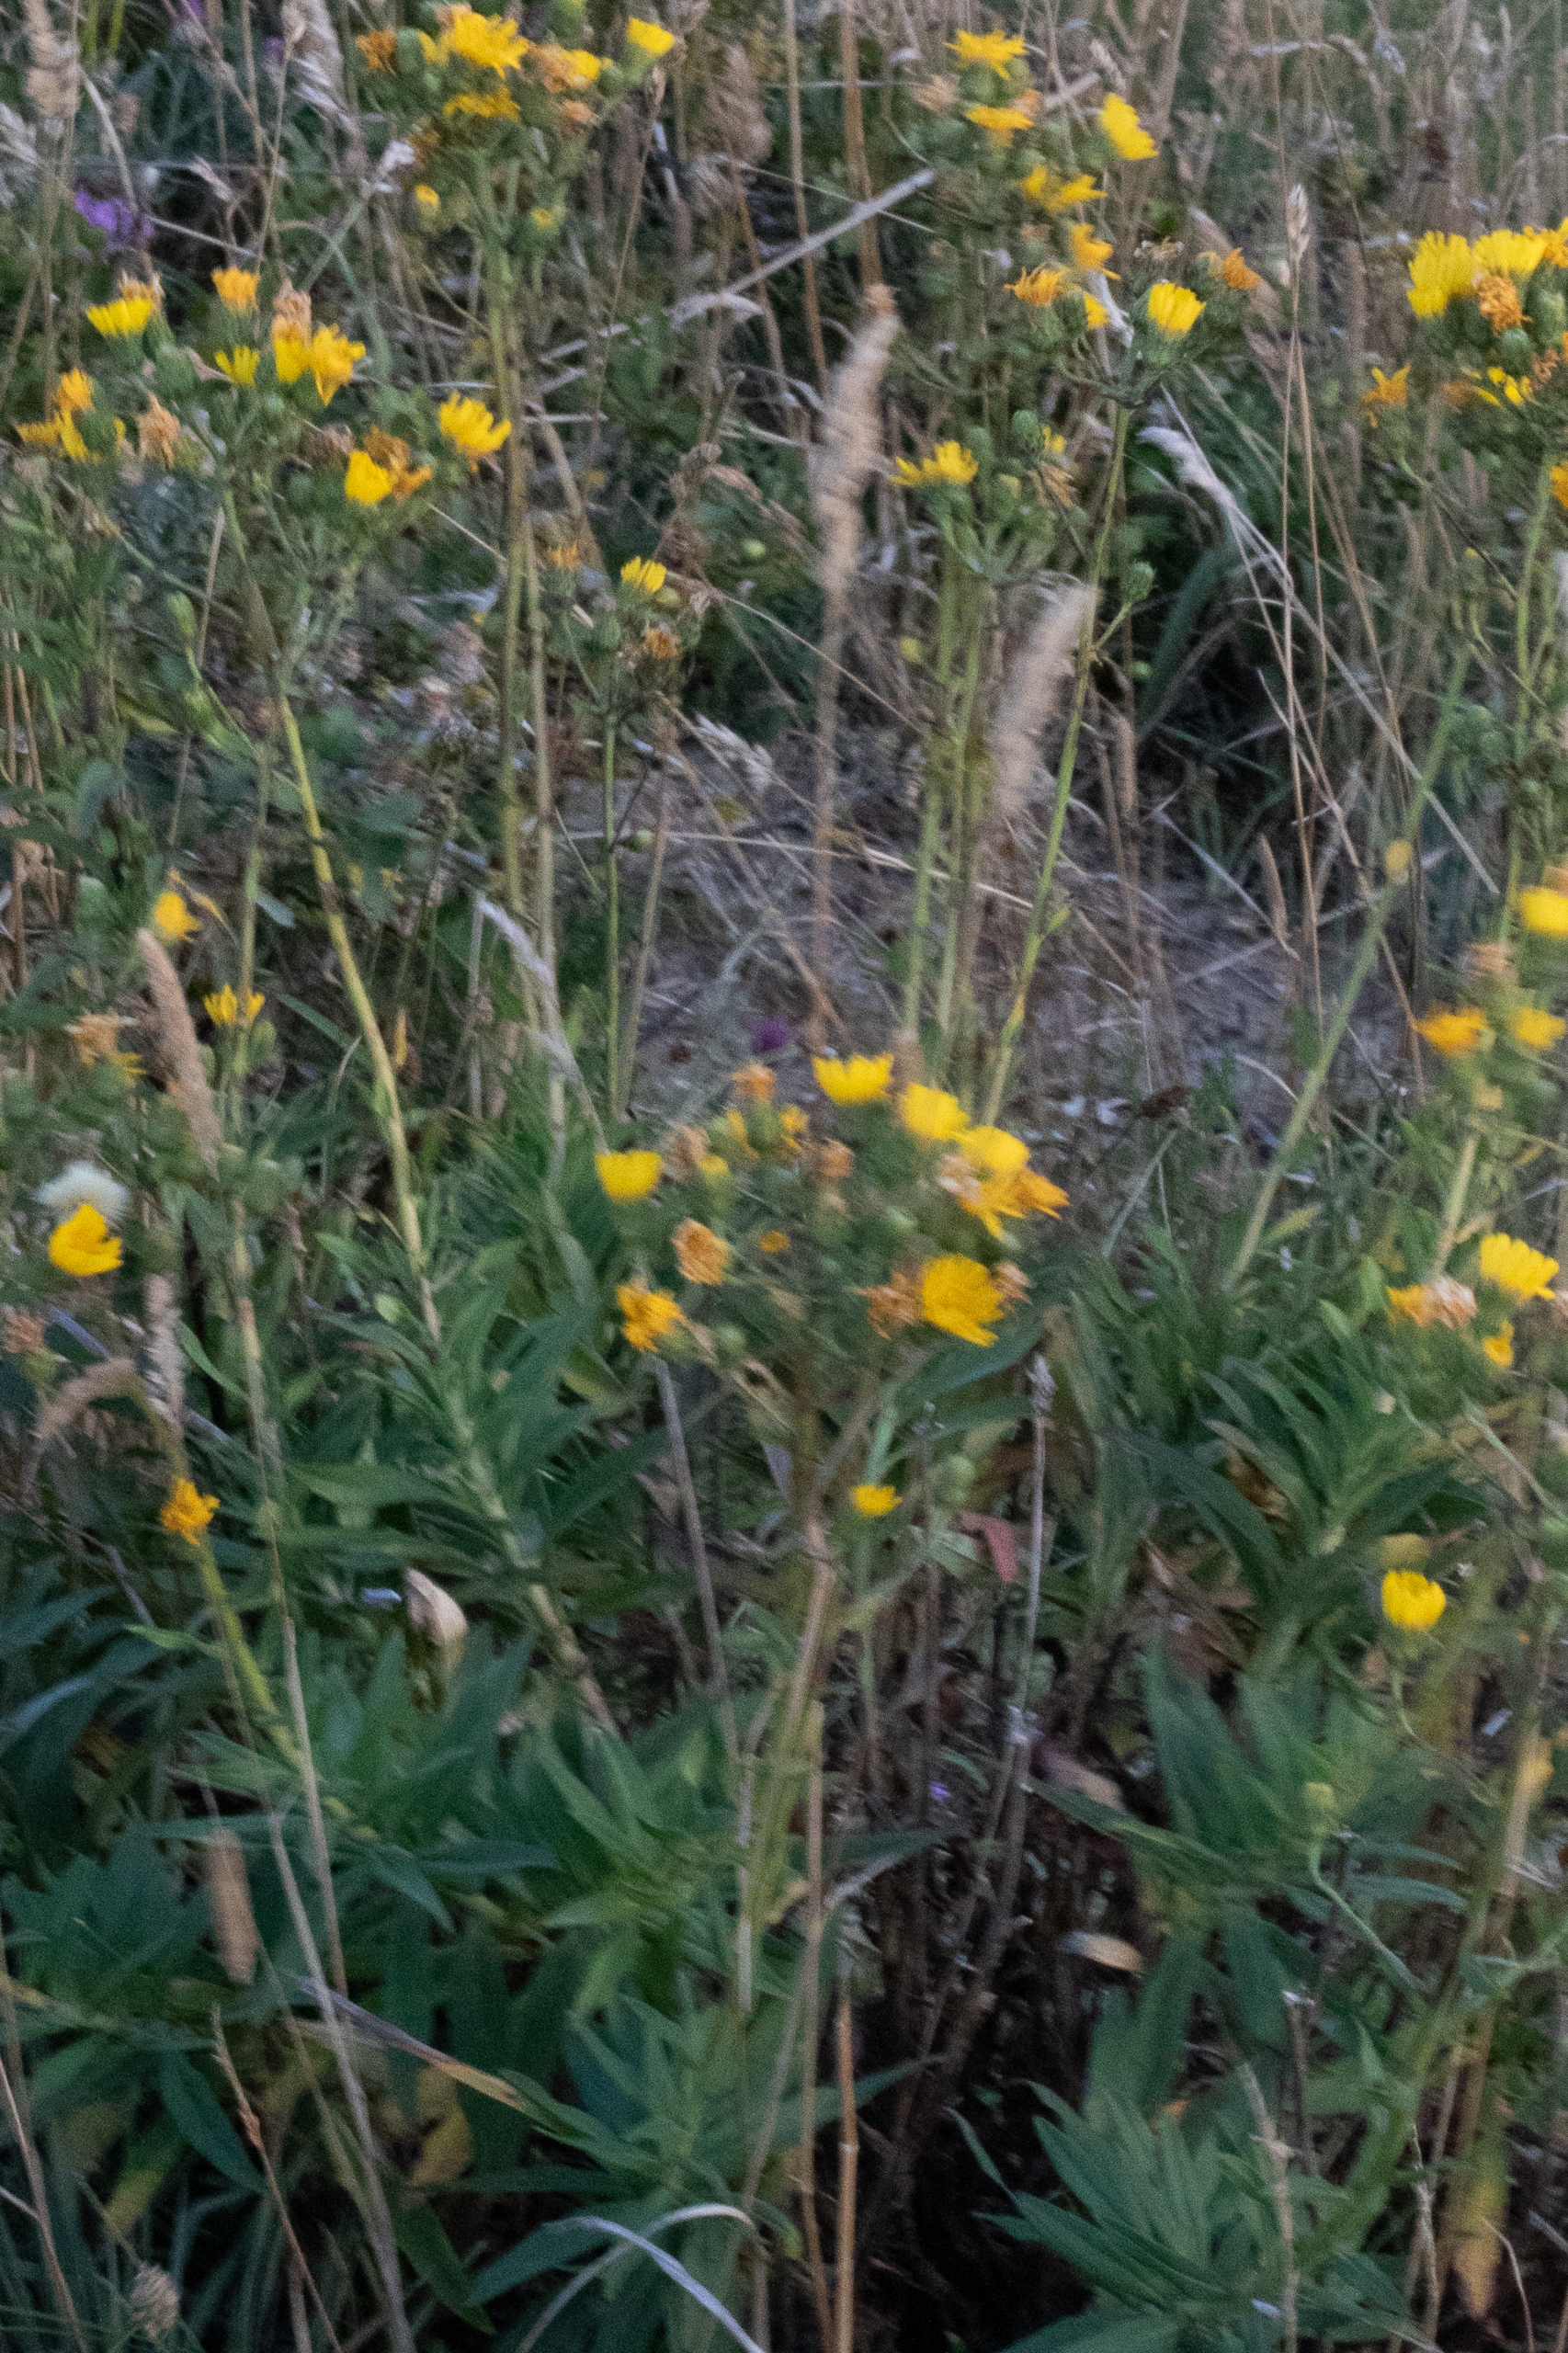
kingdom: Plantae
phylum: Tracheophyta
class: Magnoliopsida
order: Asterales
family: Asteraceae
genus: Hieracium
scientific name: Hieracium umbellatum
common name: Smalbladet høgeurt
